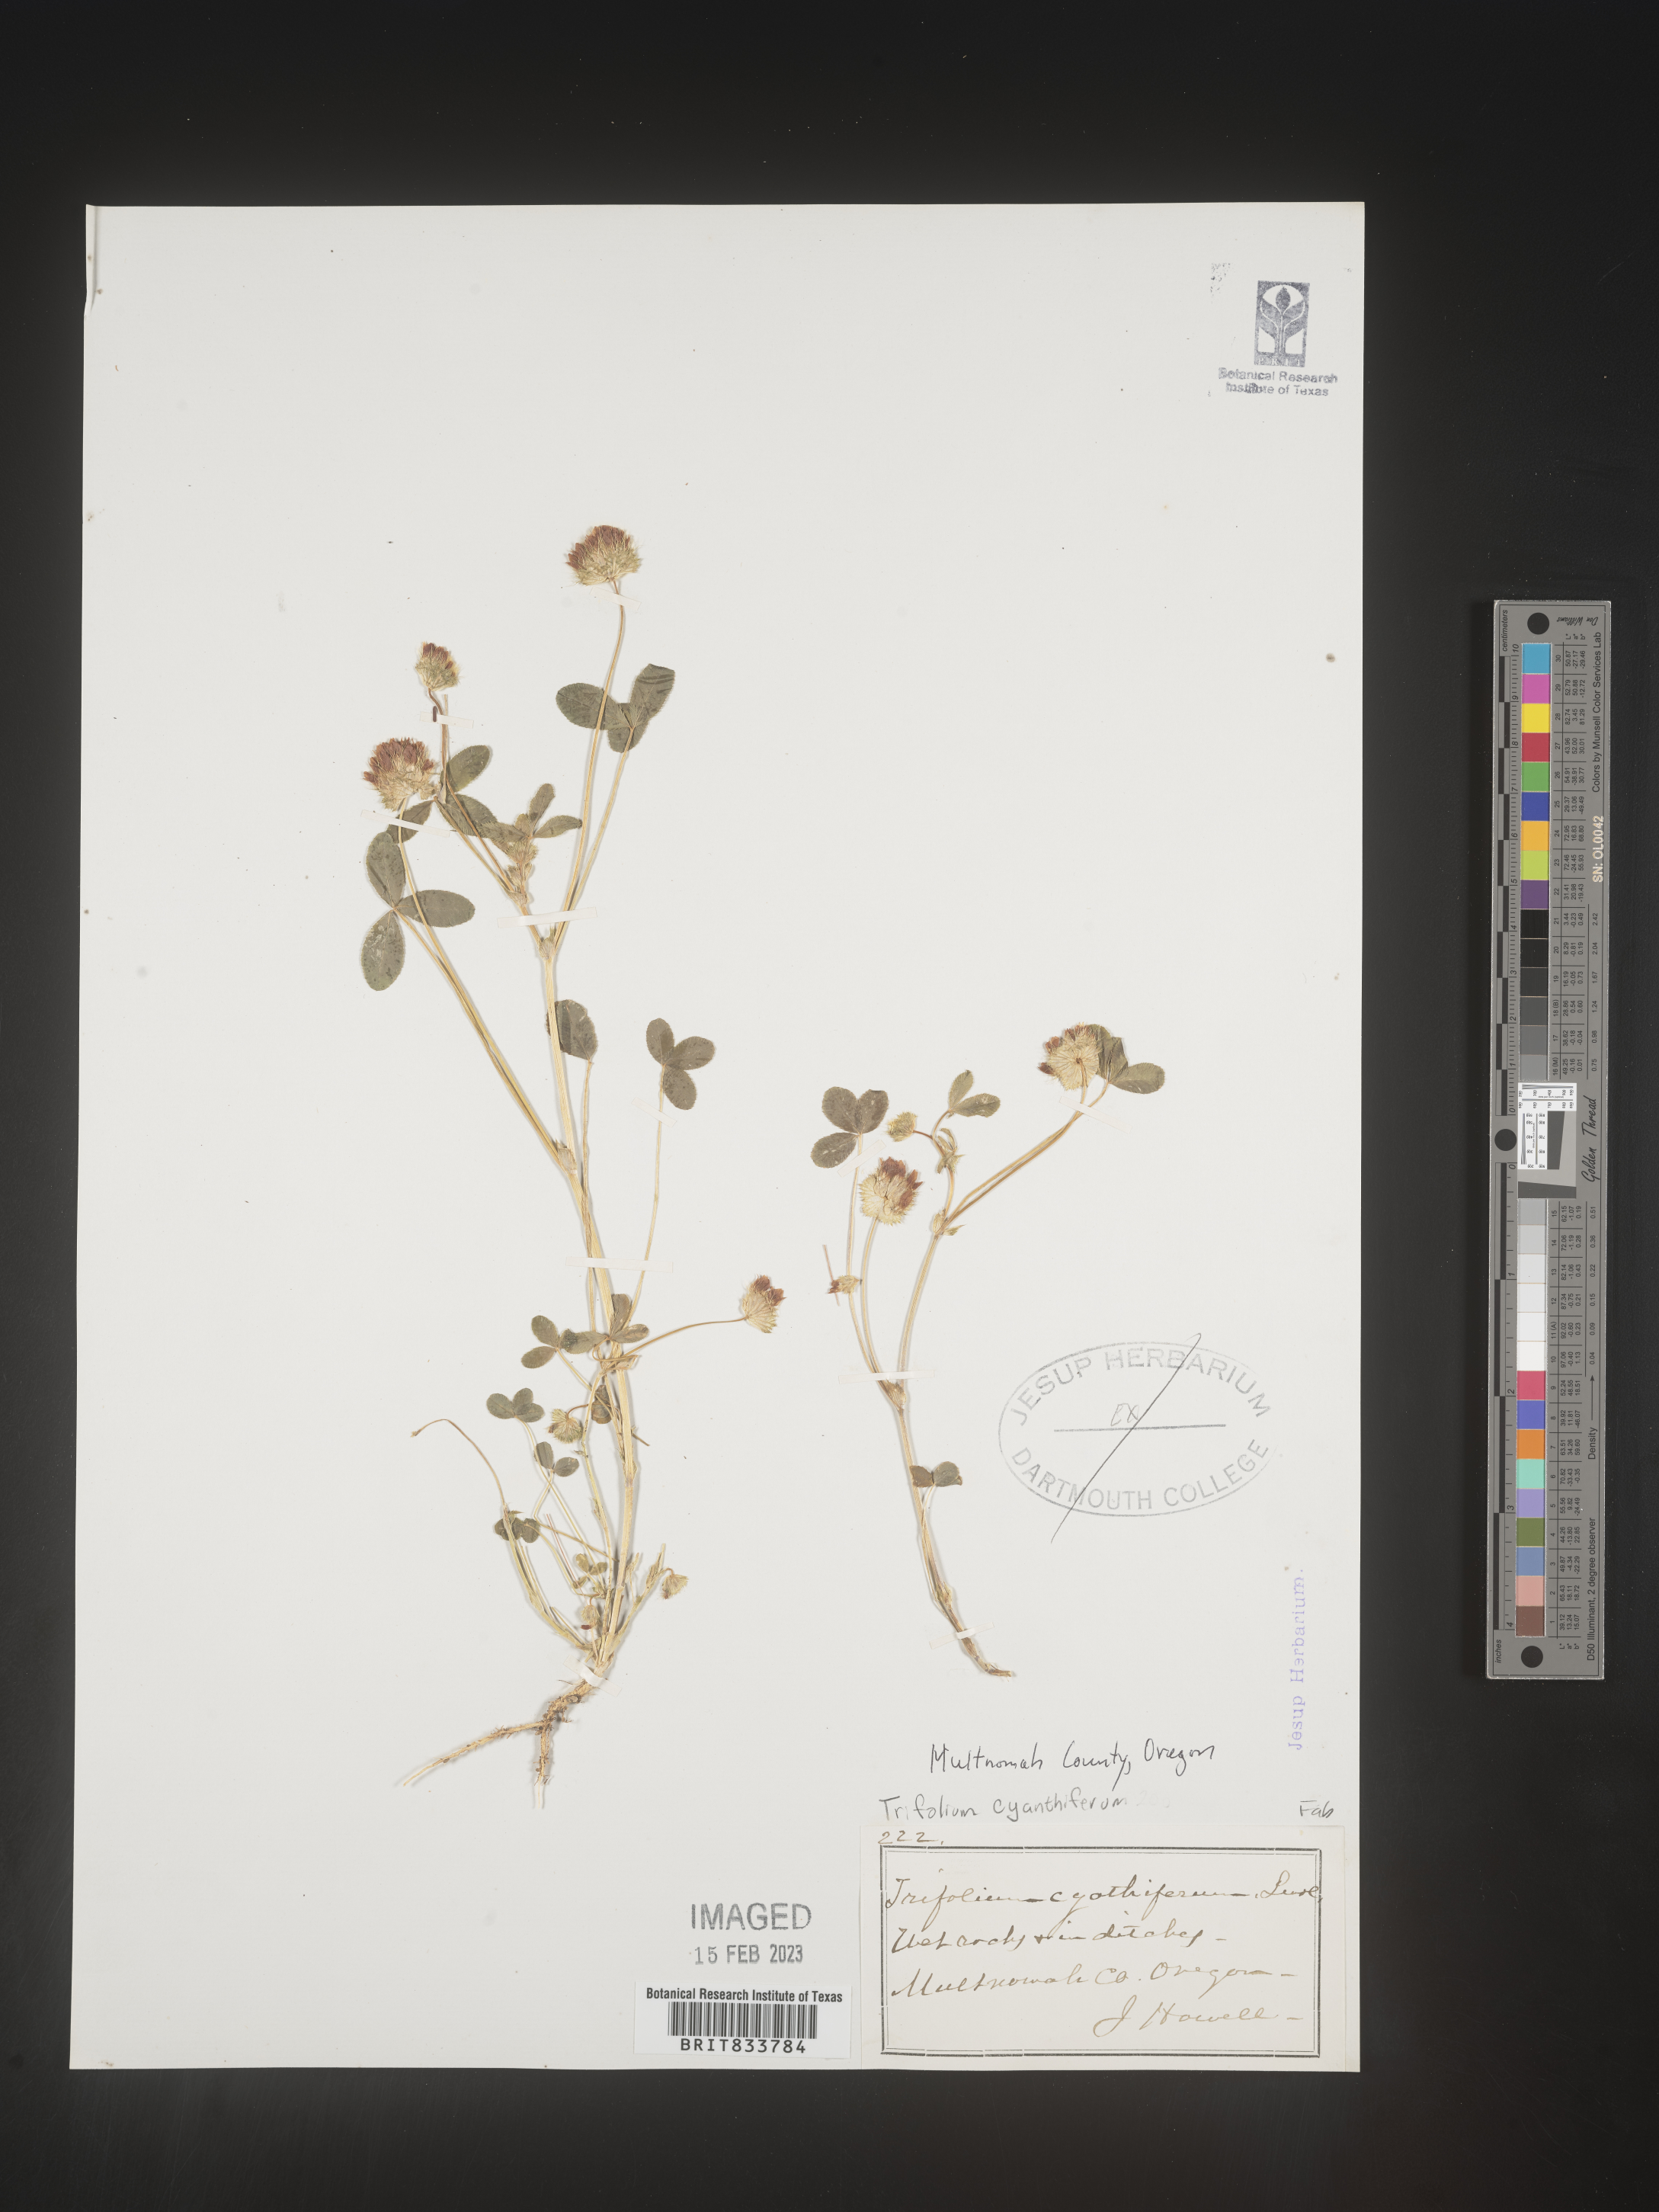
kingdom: Plantae
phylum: Tracheophyta
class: Magnoliopsida
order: Fabales
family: Fabaceae
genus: Trifolium
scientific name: Trifolium
